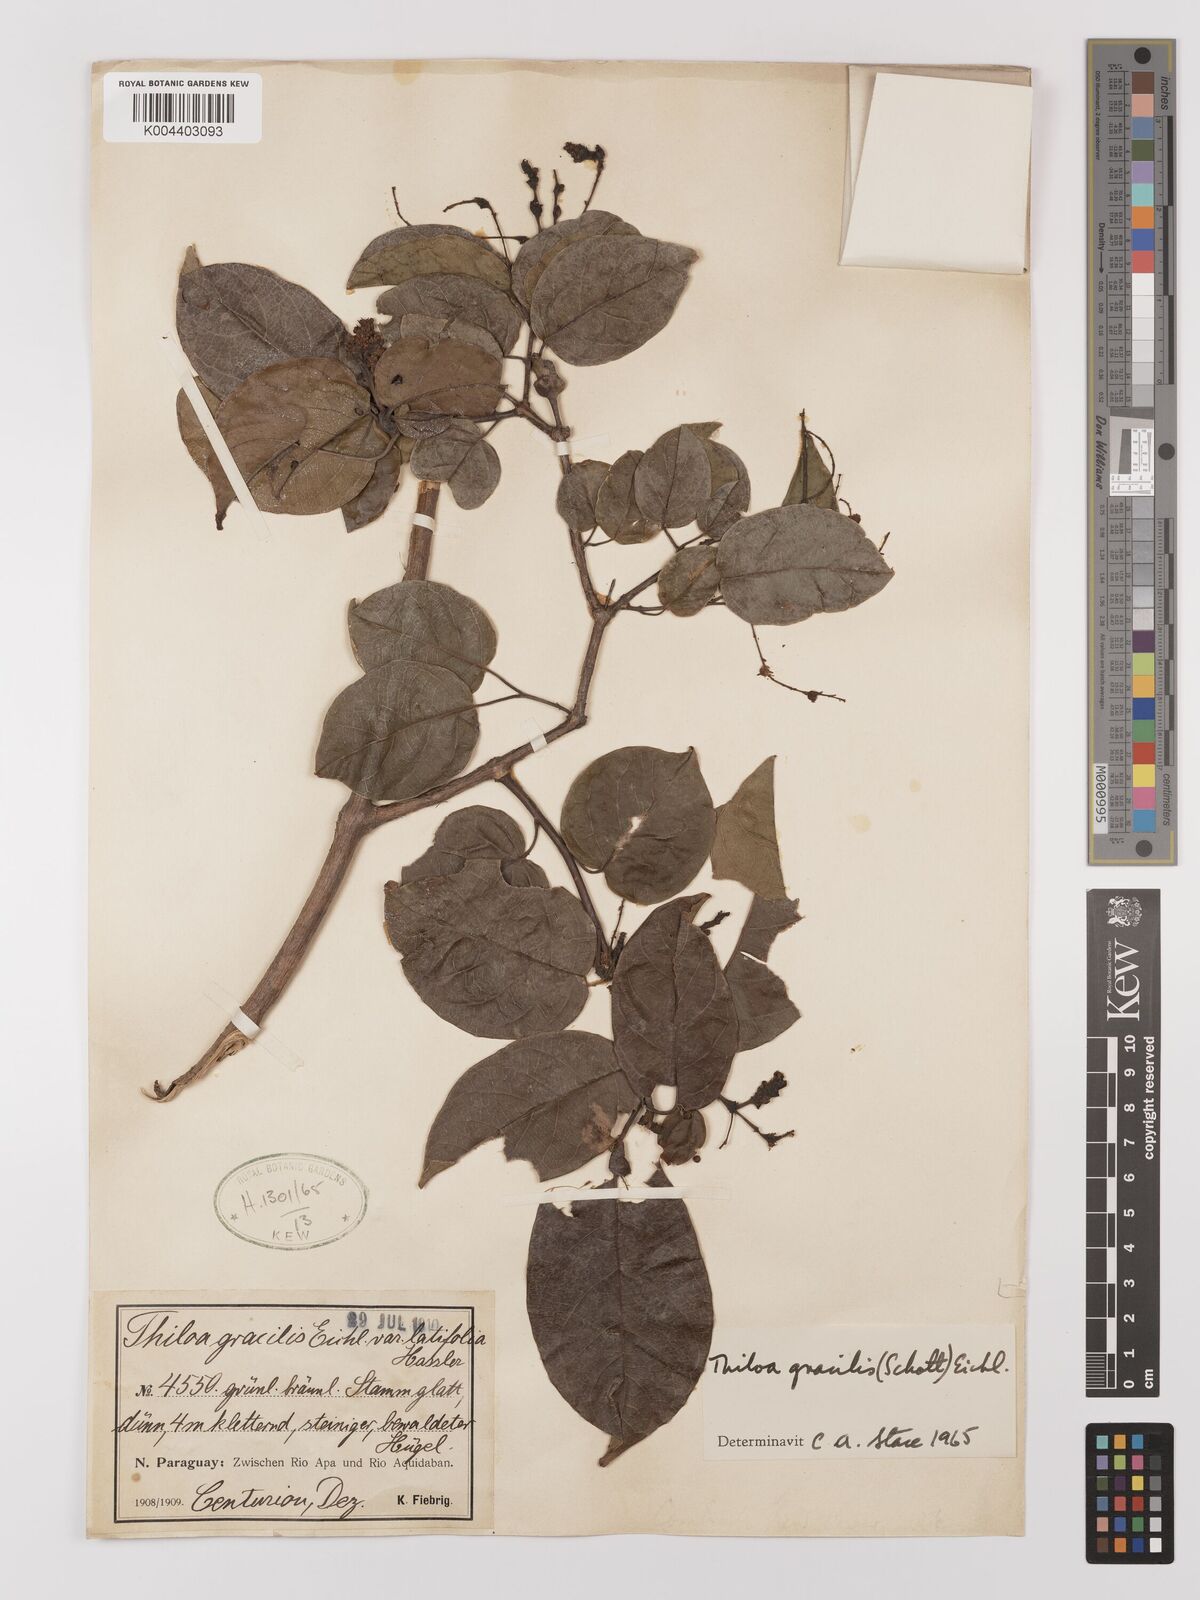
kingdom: Plantae
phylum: Tracheophyta
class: Magnoliopsida
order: Myrtales
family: Combretaceae
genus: Combretum
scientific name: Combretum gracile
